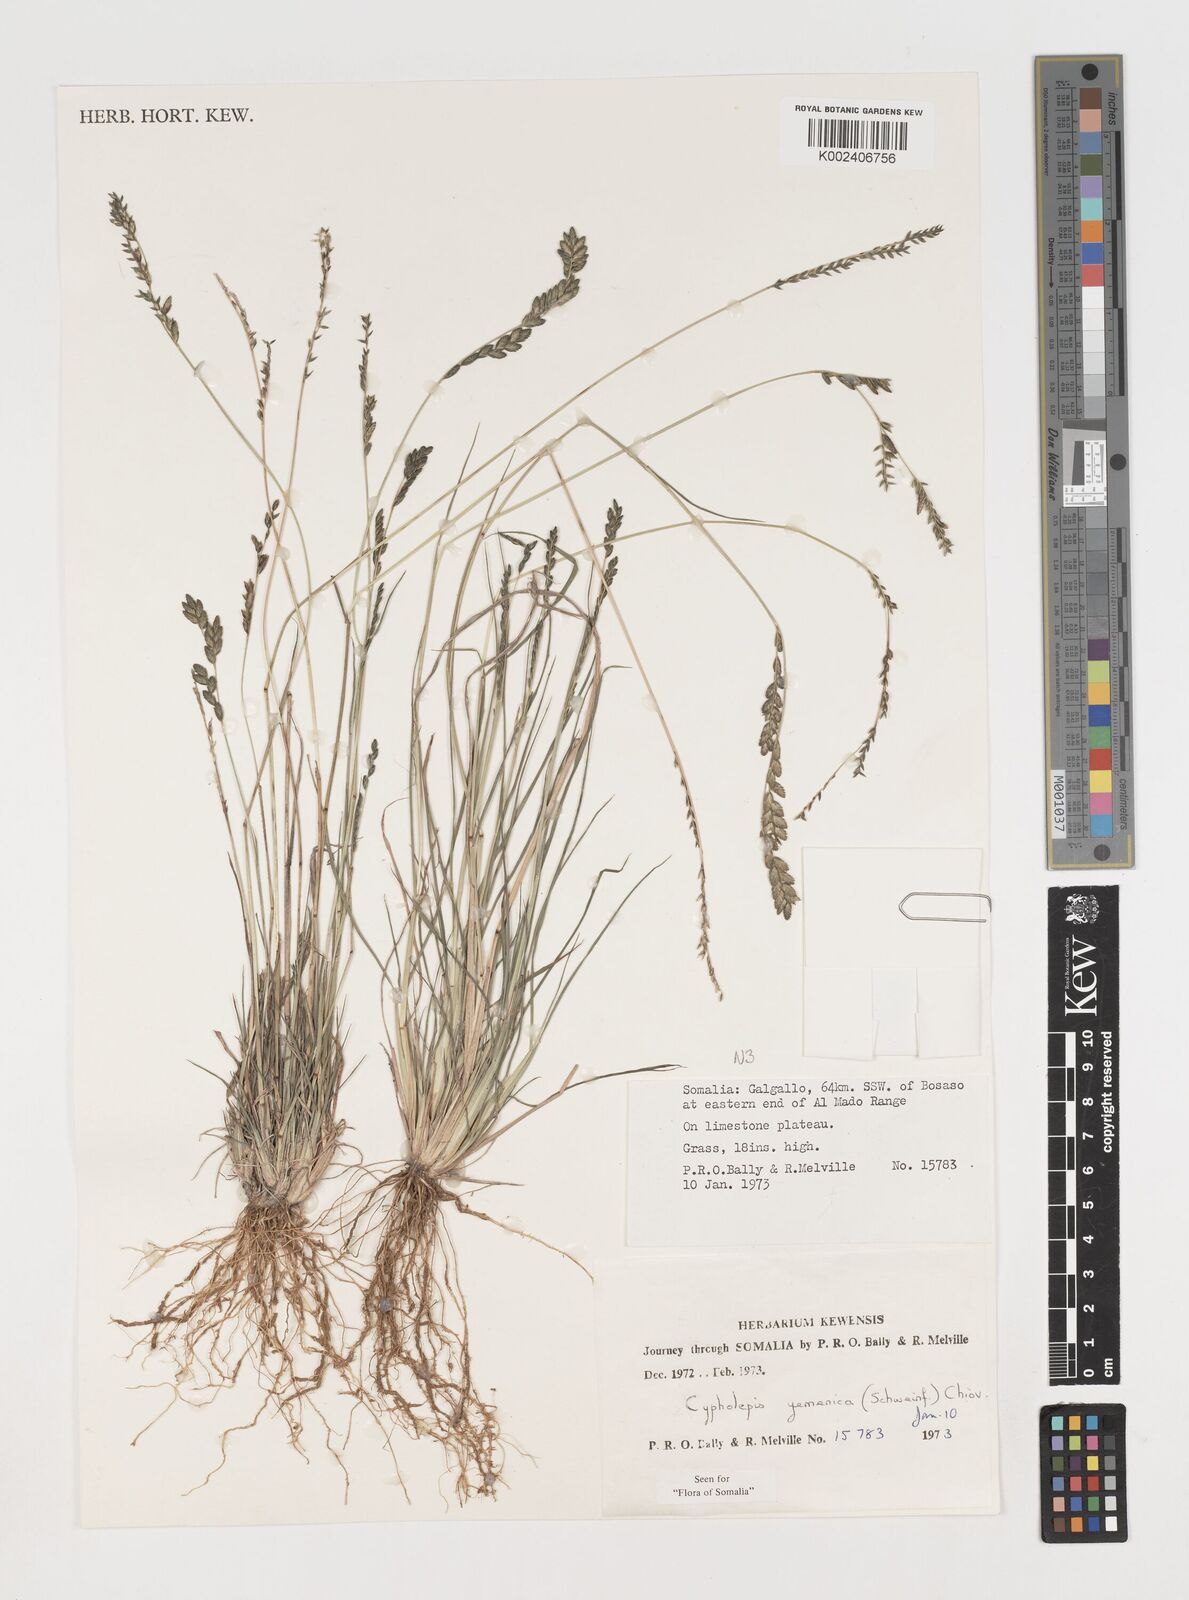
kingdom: Plantae
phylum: Tracheophyta
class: Liliopsida
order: Poales
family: Poaceae
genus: Disakisperma
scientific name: Disakisperma yemenicum
